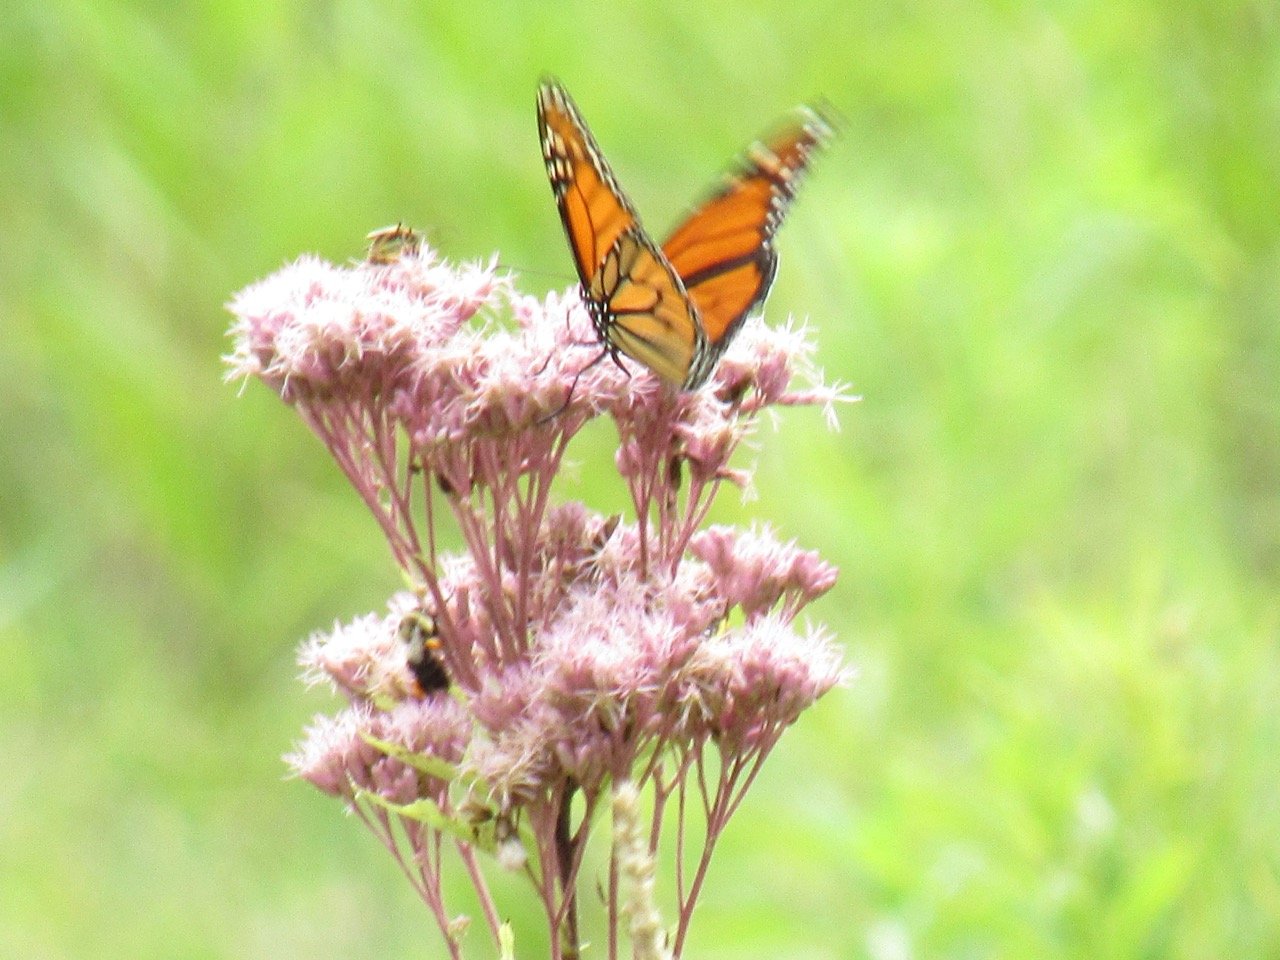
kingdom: Animalia
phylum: Arthropoda
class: Insecta
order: Lepidoptera
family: Nymphalidae
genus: Danaus
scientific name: Danaus plexippus
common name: Monarch
